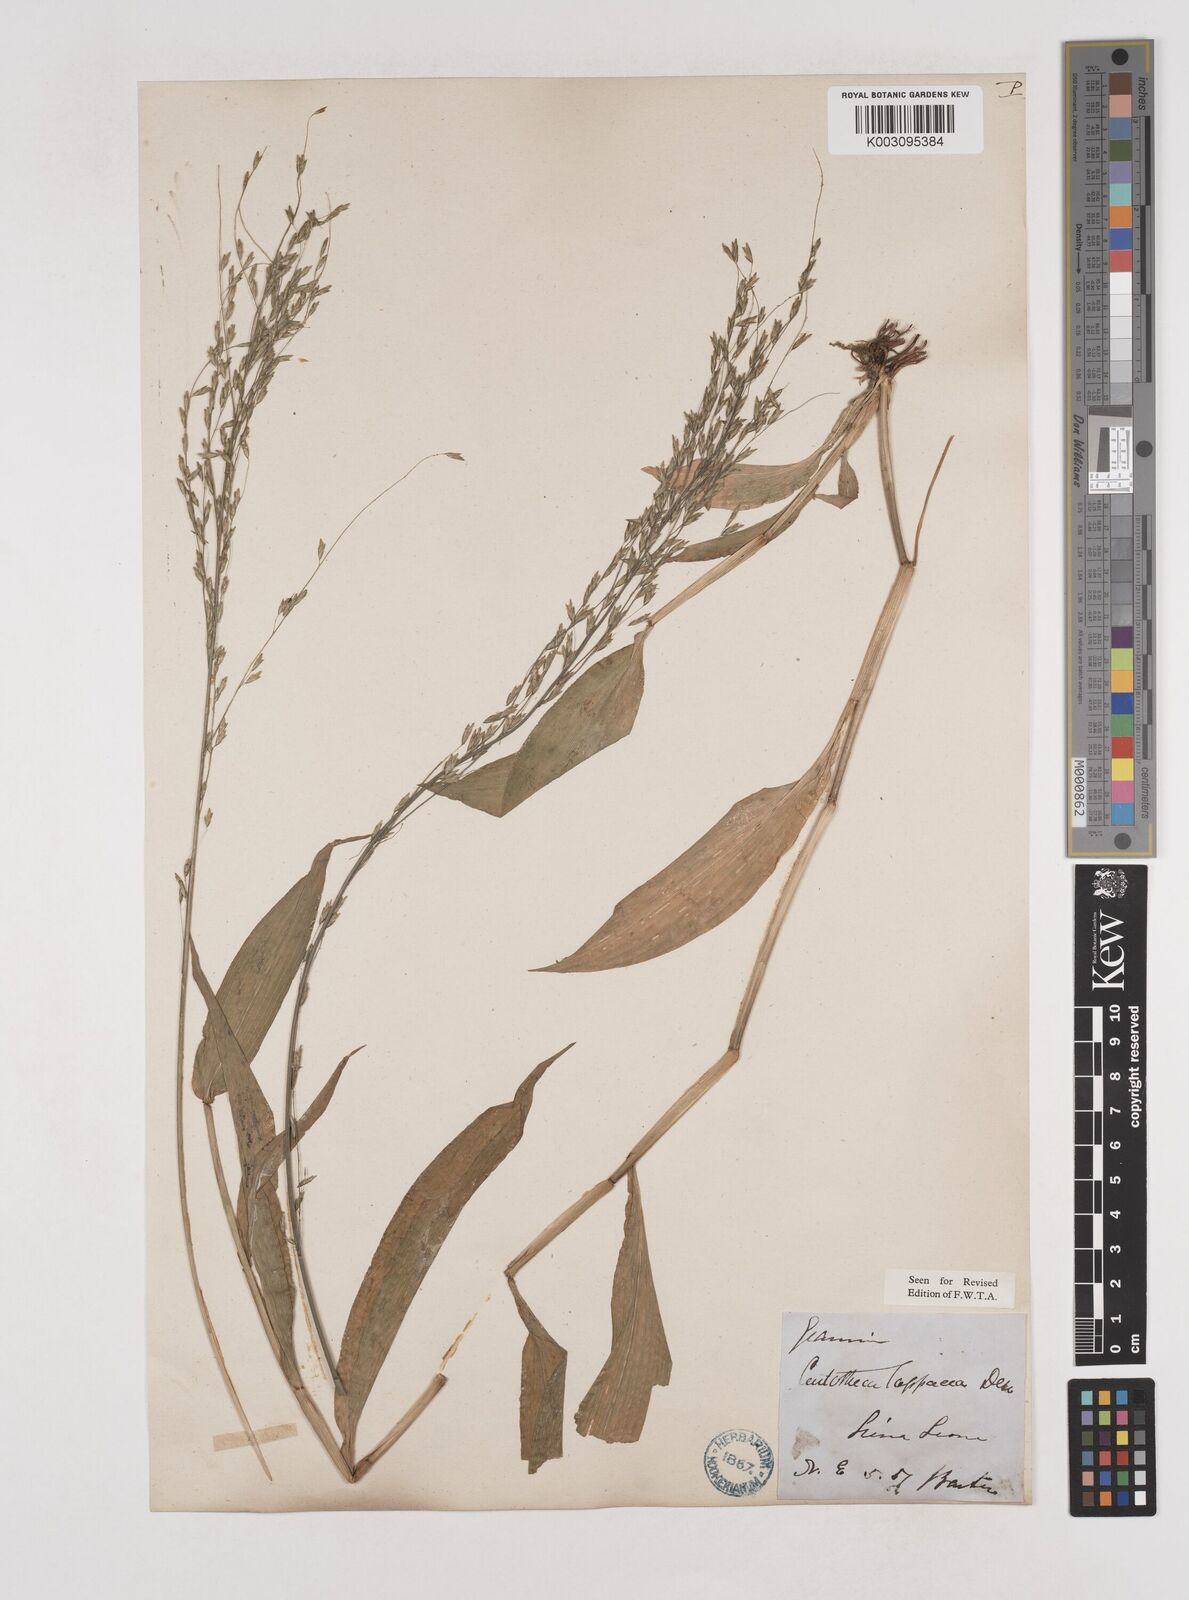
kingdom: Plantae
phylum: Tracheophyta
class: Liliopsida
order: Poales
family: Poaceae
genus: Centotheca
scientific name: Centotheca lappacea
